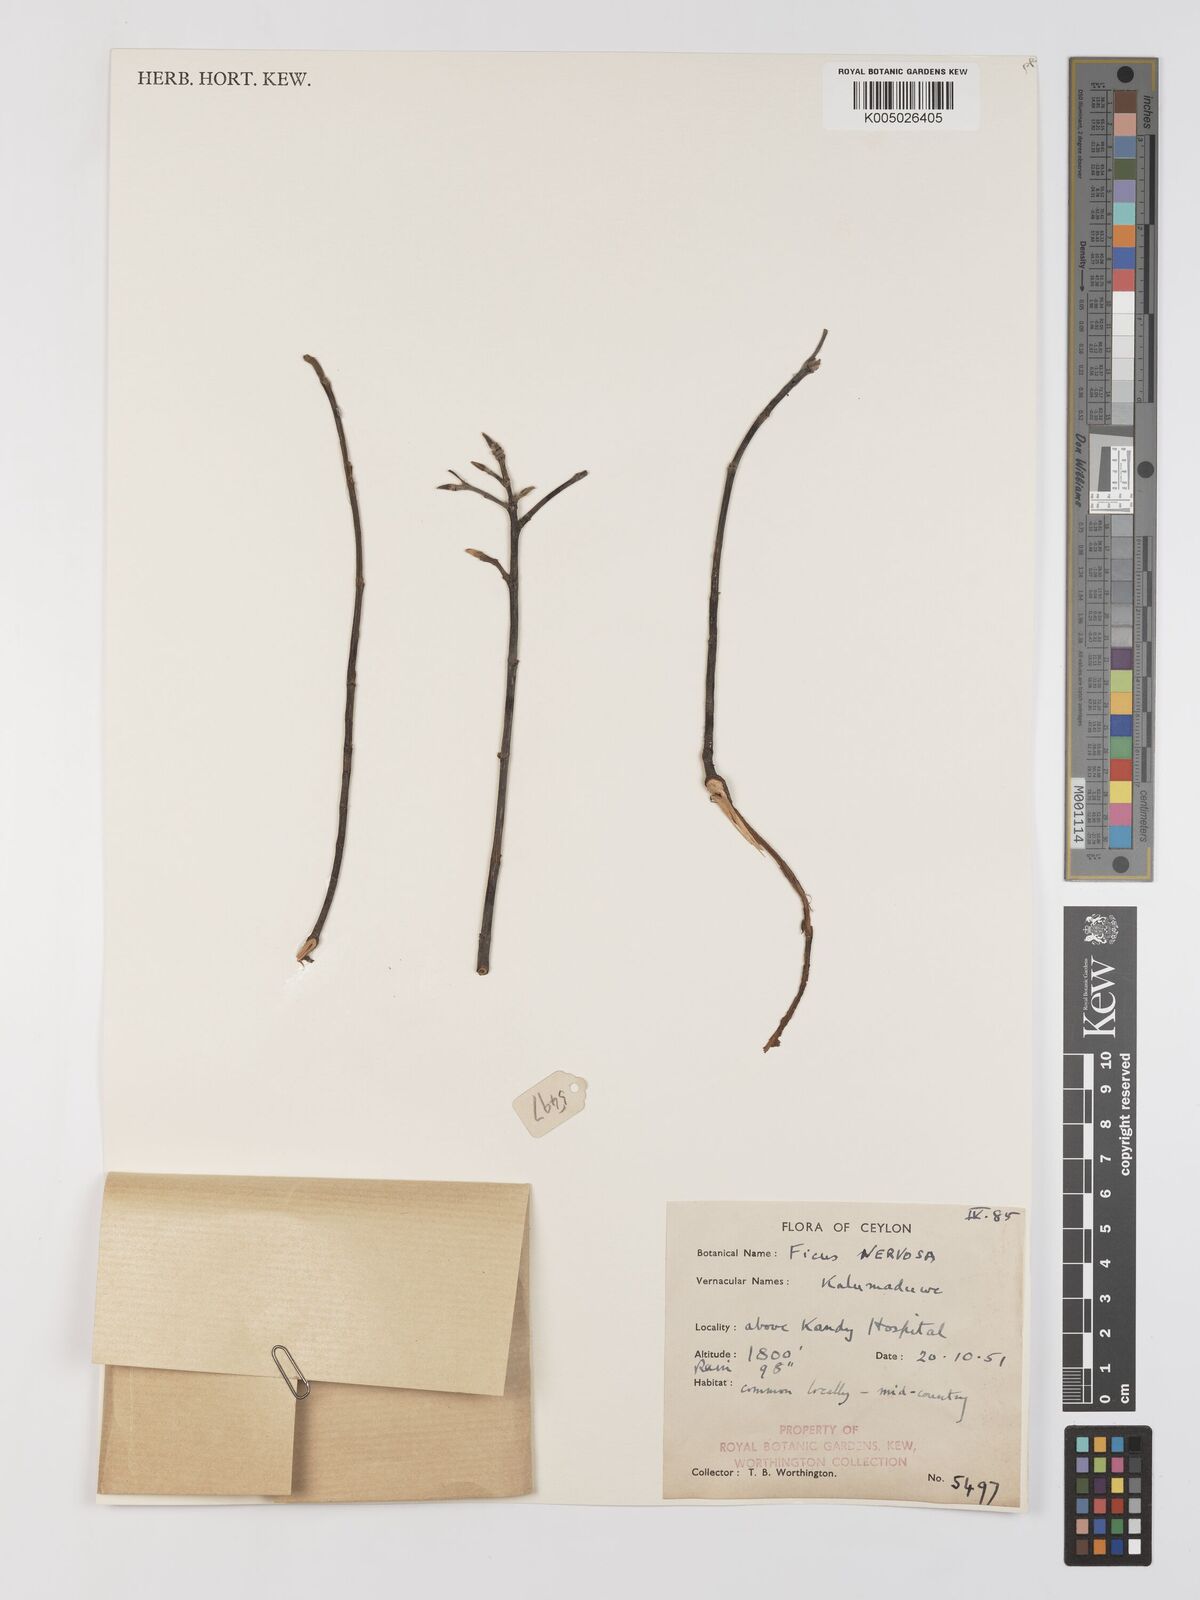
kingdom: Plantae
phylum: Tracheophyta
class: Magnoliopsida
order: Rosales
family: Moraceae
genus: Ficus
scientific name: Ficus nervosa
